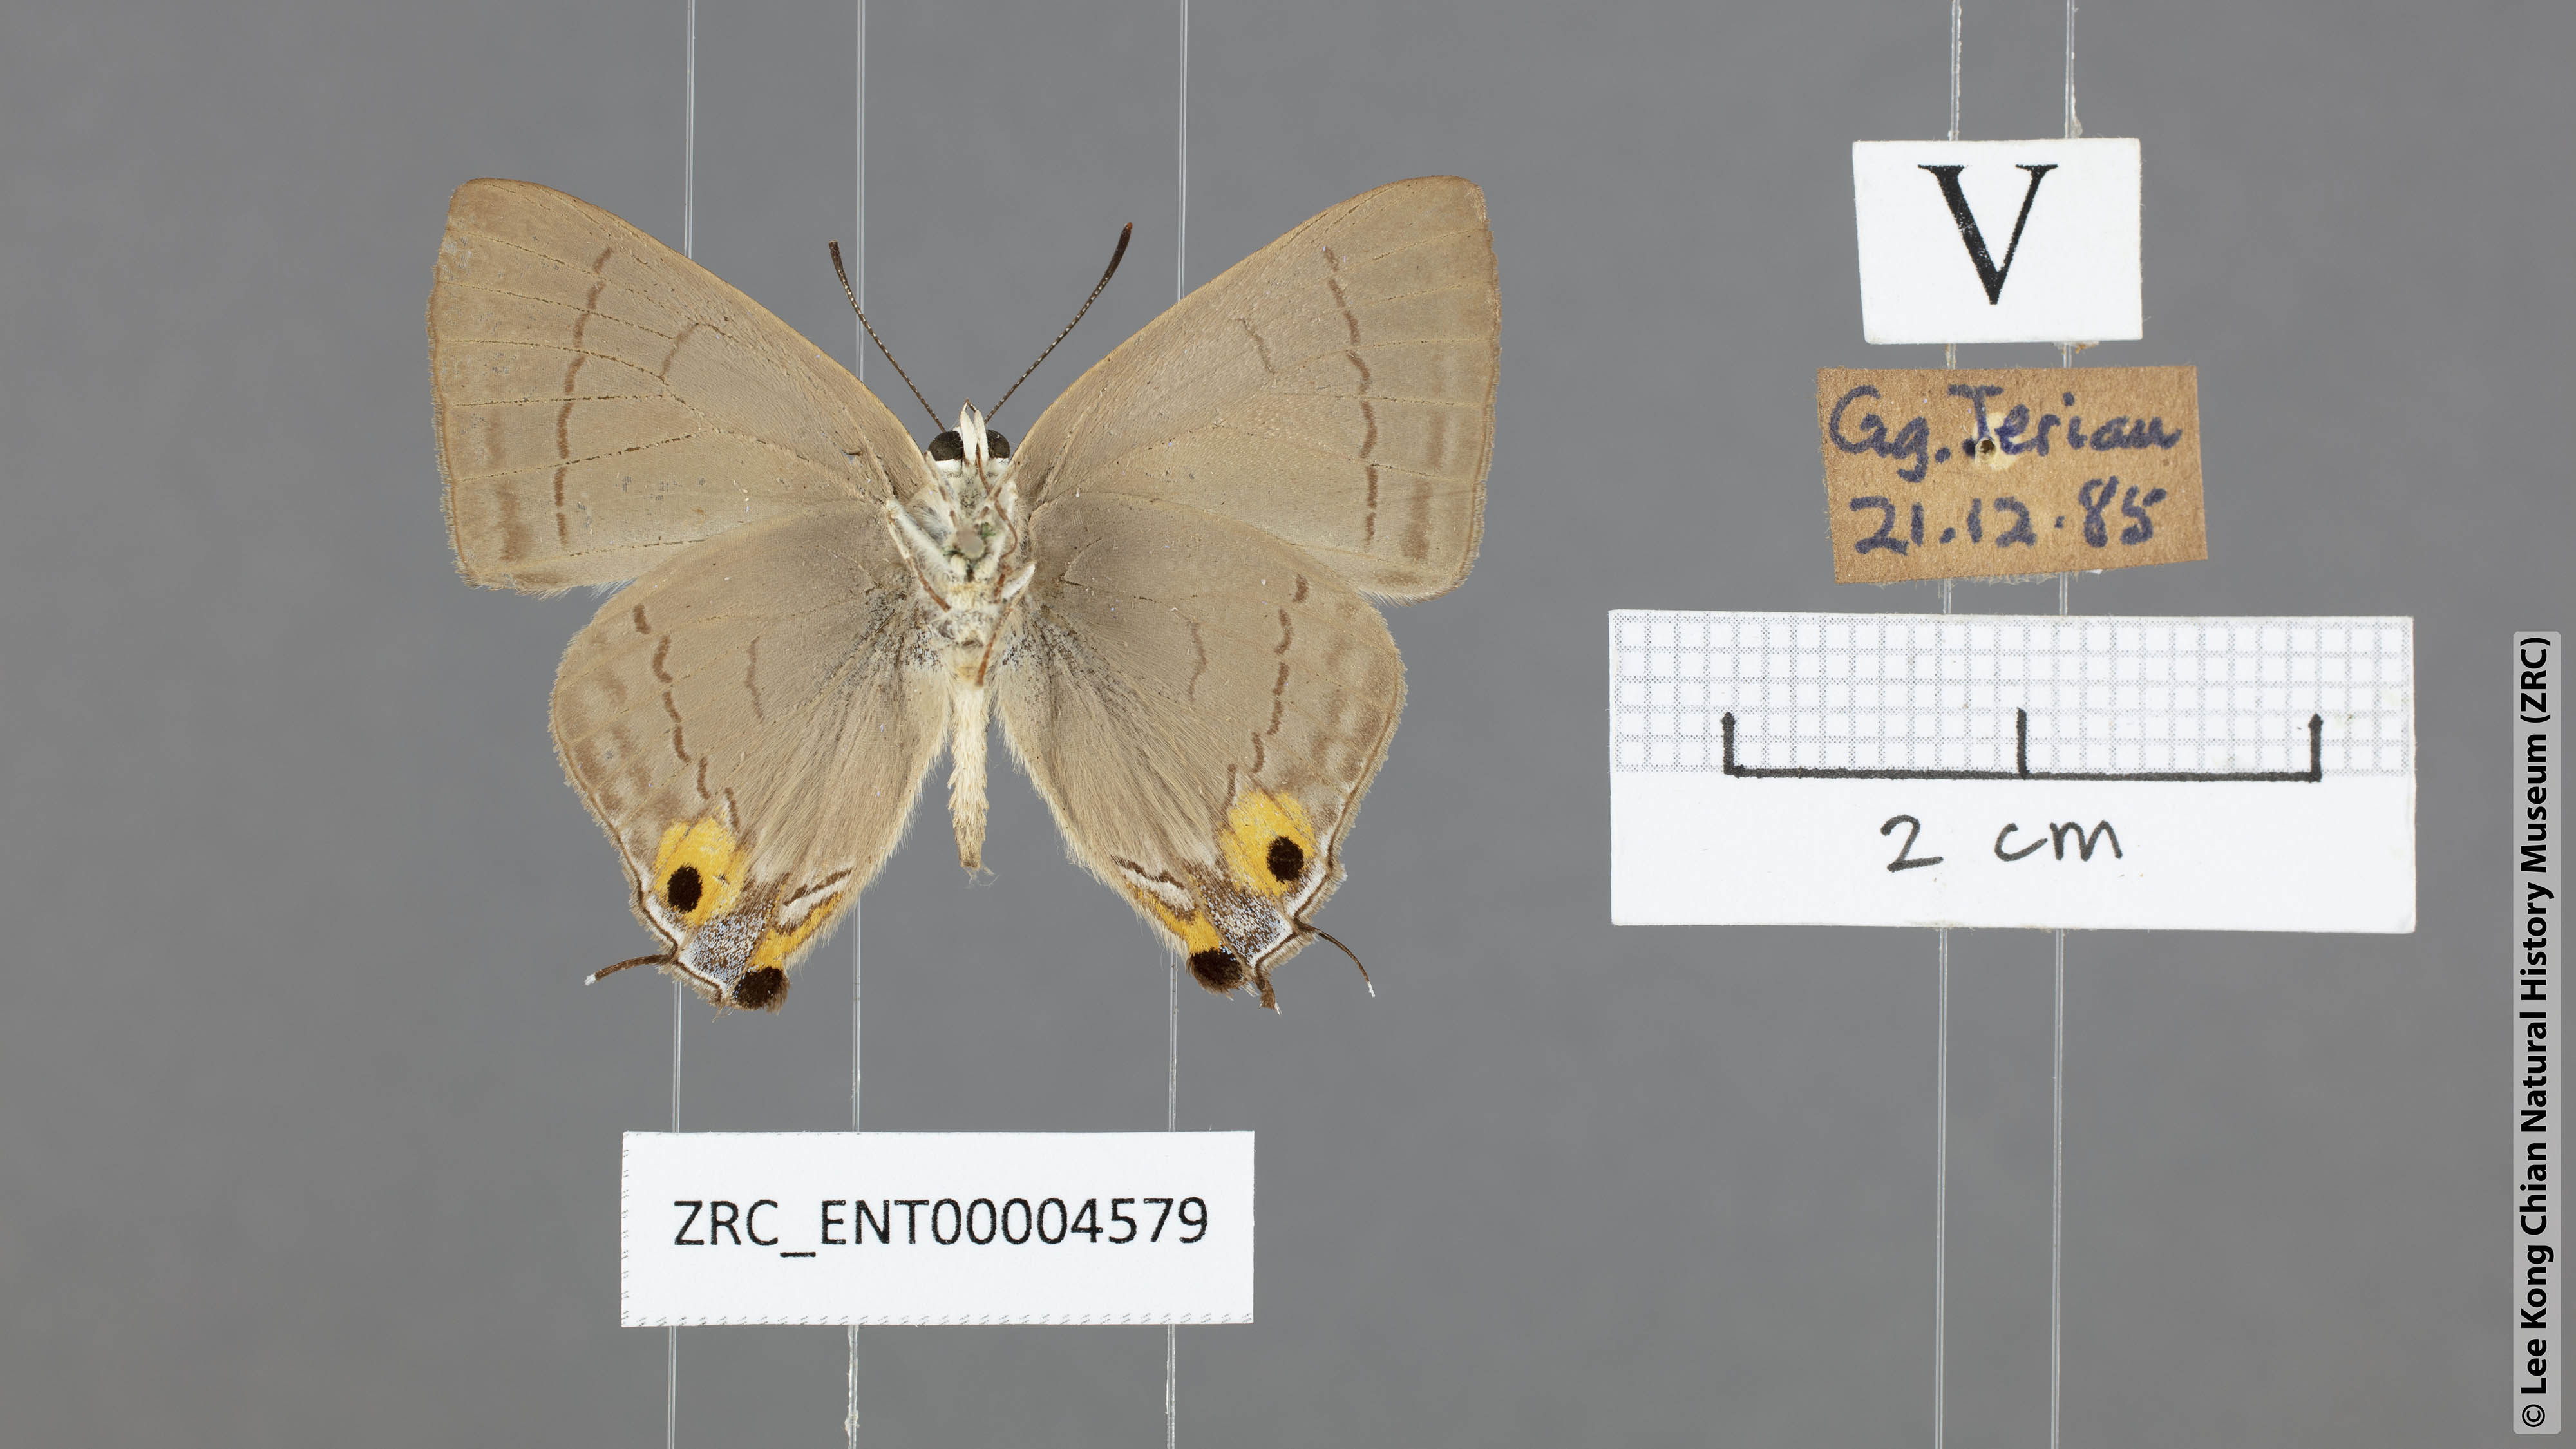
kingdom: Animalia
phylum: Arthropoda
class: Insecta
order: Lepidoptera
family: Lycaenidae
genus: Tajuria
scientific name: Tajuria albiplaga
